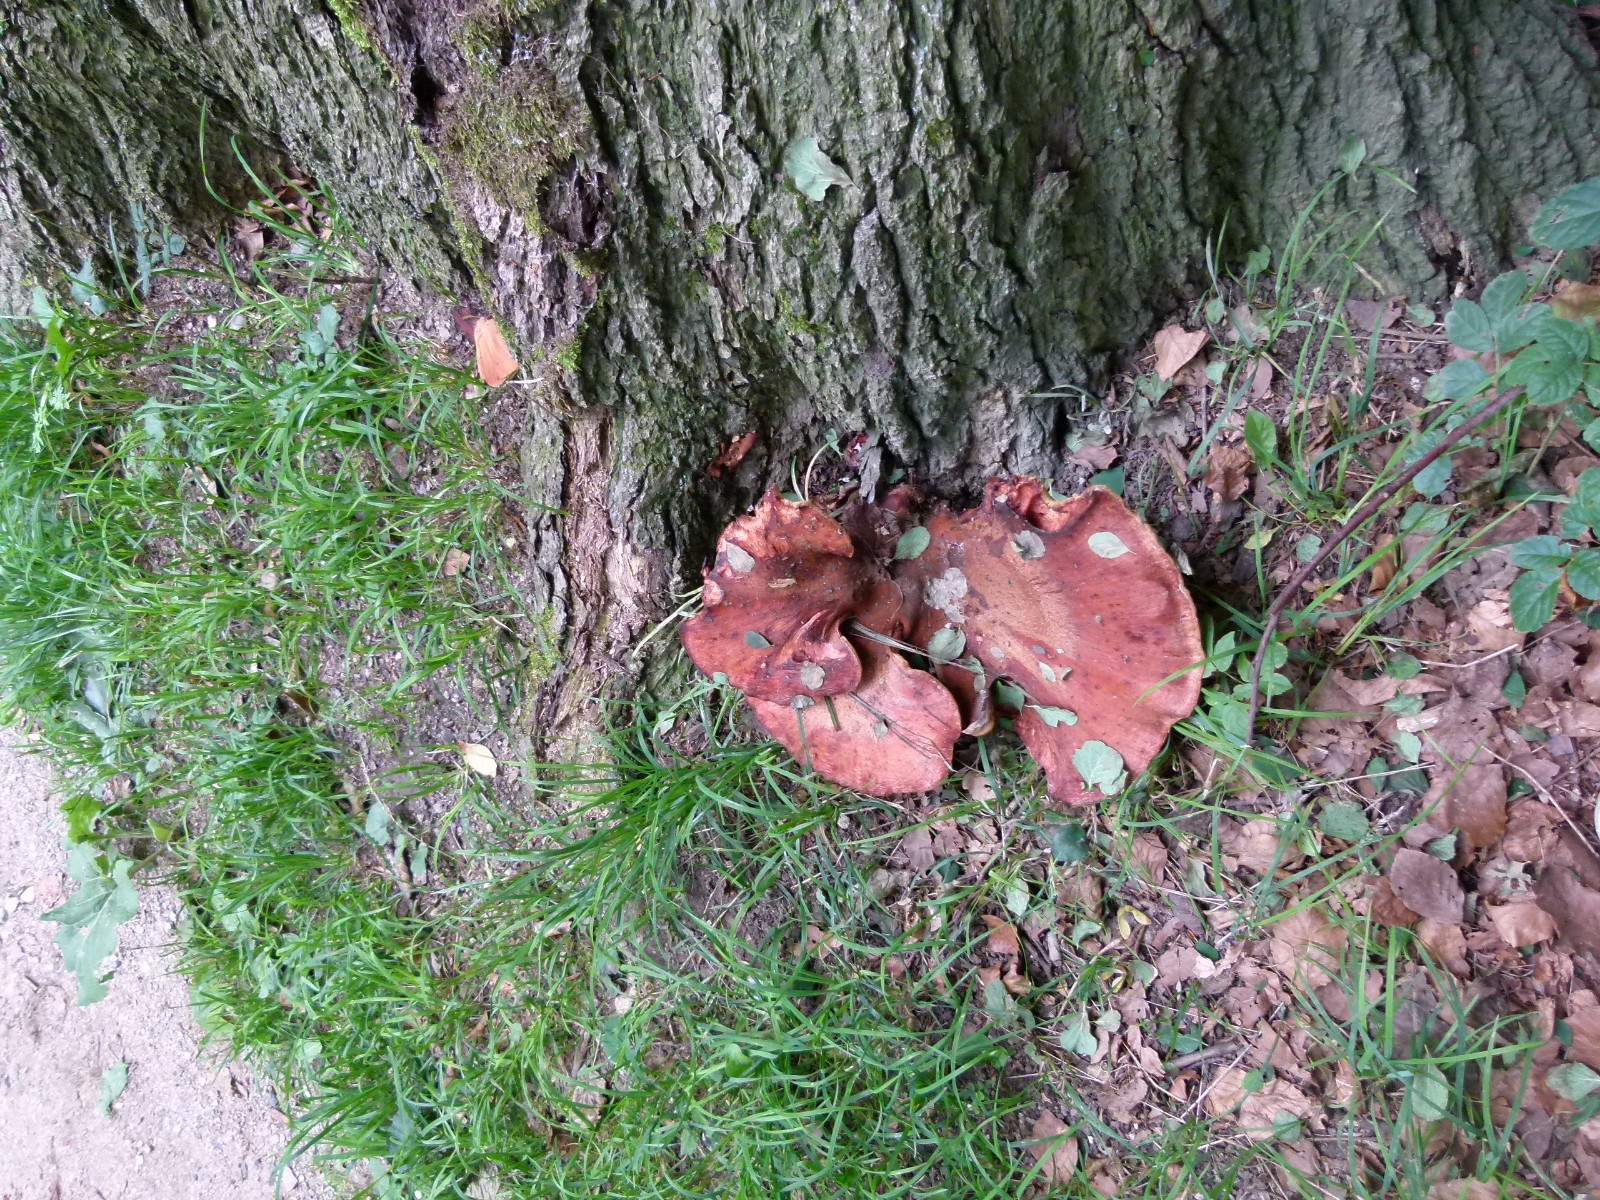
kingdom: Fungi
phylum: Basidiomycota
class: Agaricomycetes
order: Agaricales
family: Fistulinaceae
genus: Fistulina
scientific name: Fistulina hepatica
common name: oksetunge
